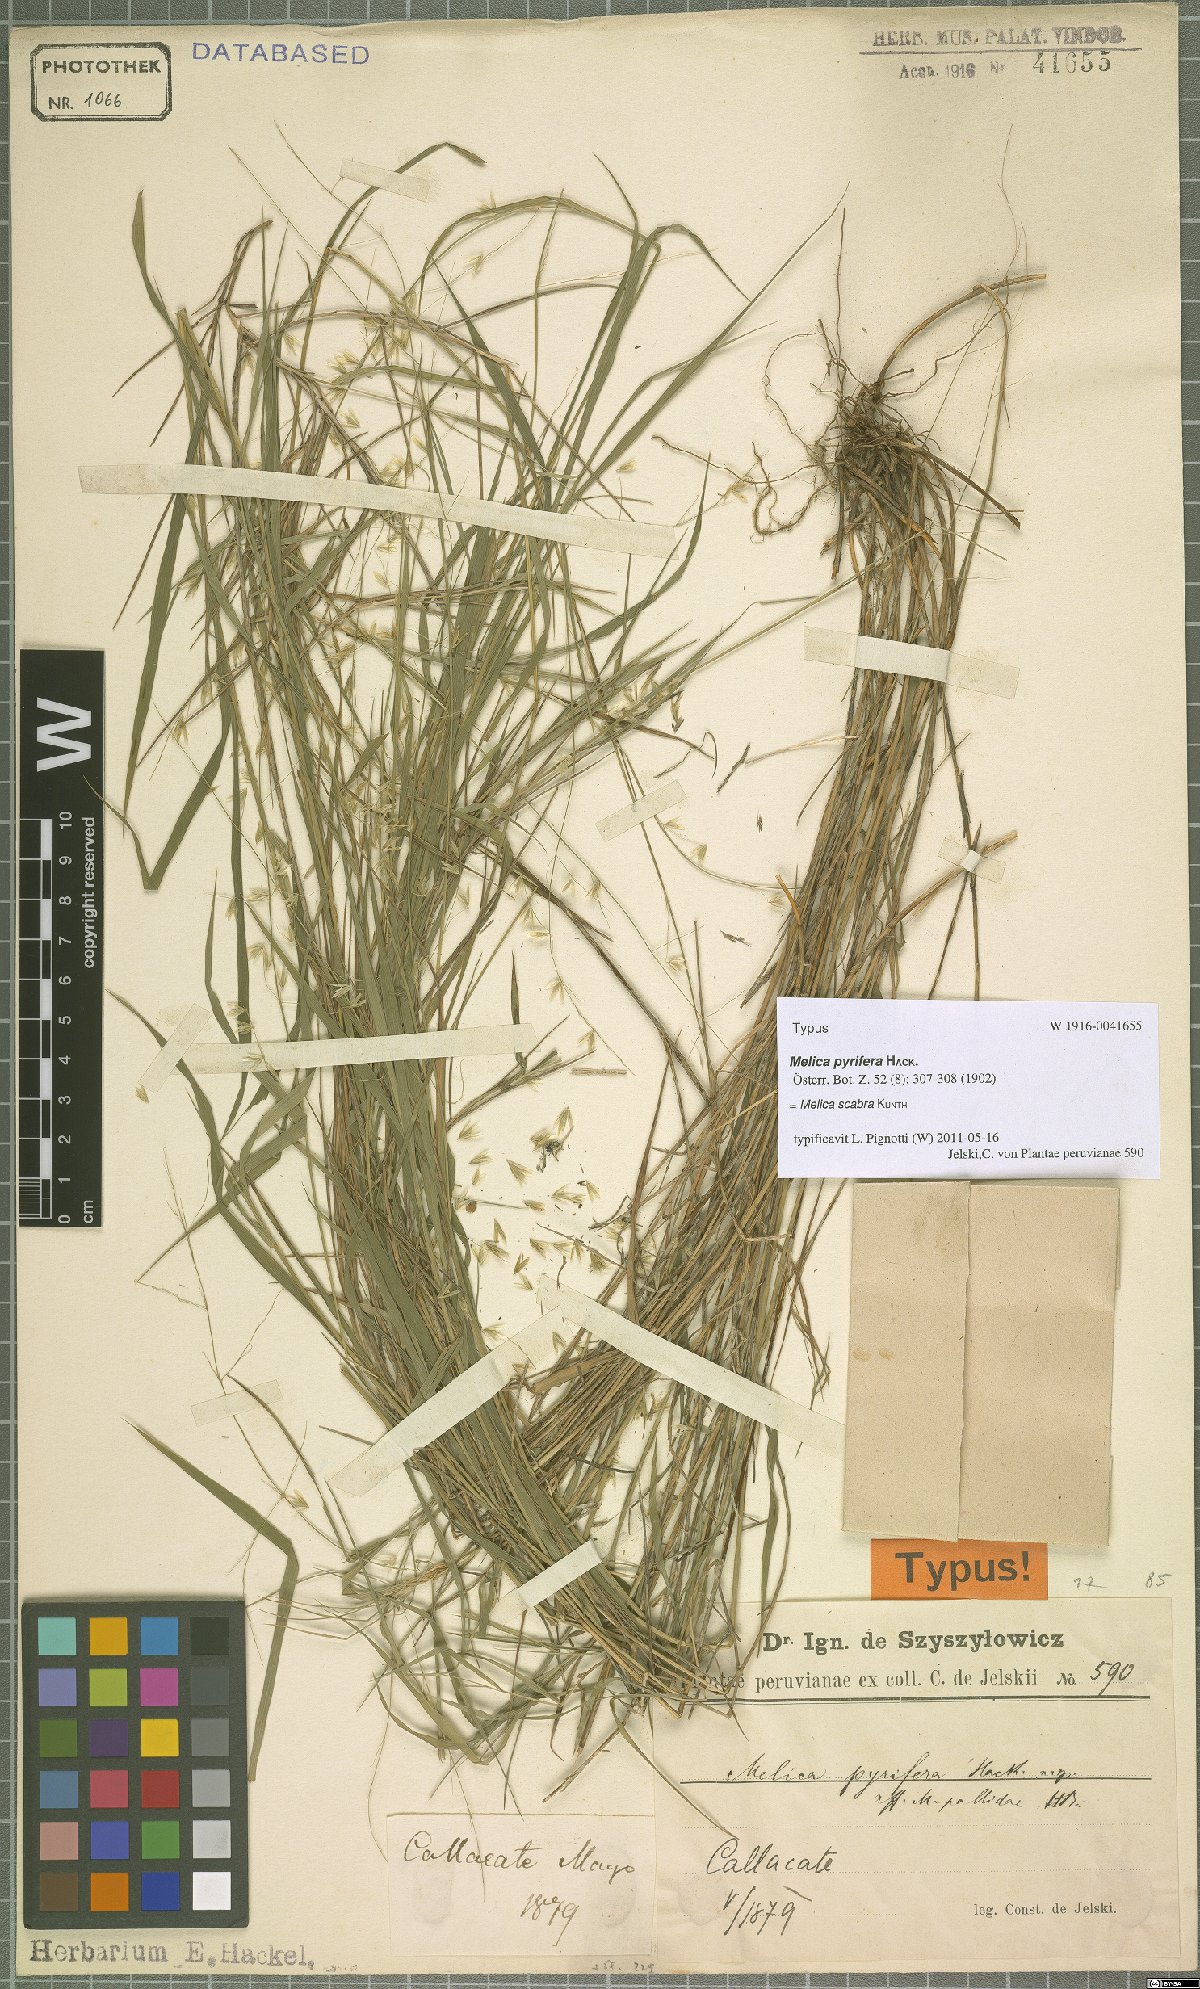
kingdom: Plantae
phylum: Tracheophyta
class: Liliopsida
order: Poales
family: Poaceae
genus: Melica
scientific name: Melica scabra
